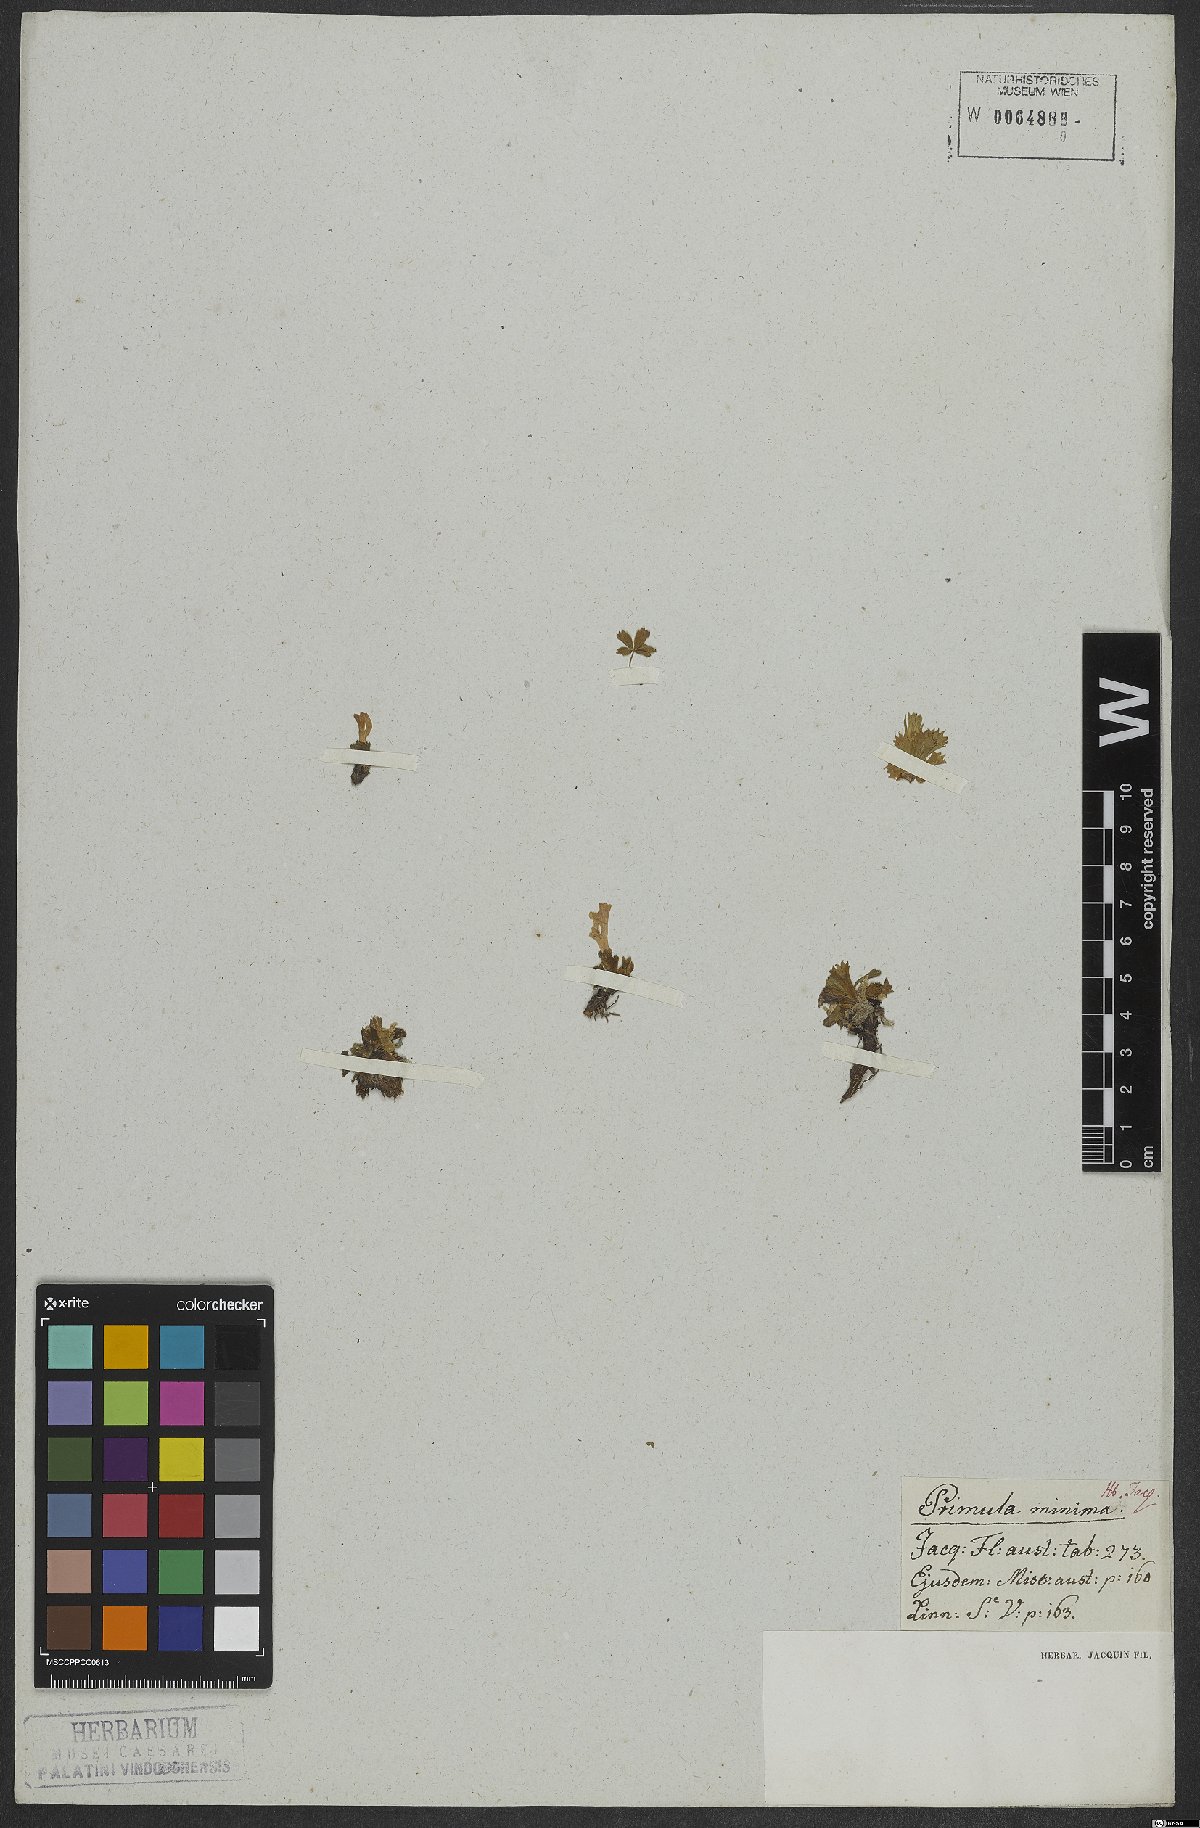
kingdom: Plantae
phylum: Tracheophyta
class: Magnoliopsida
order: Ericales
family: Primulaceae
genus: Primula
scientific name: Primula minima
